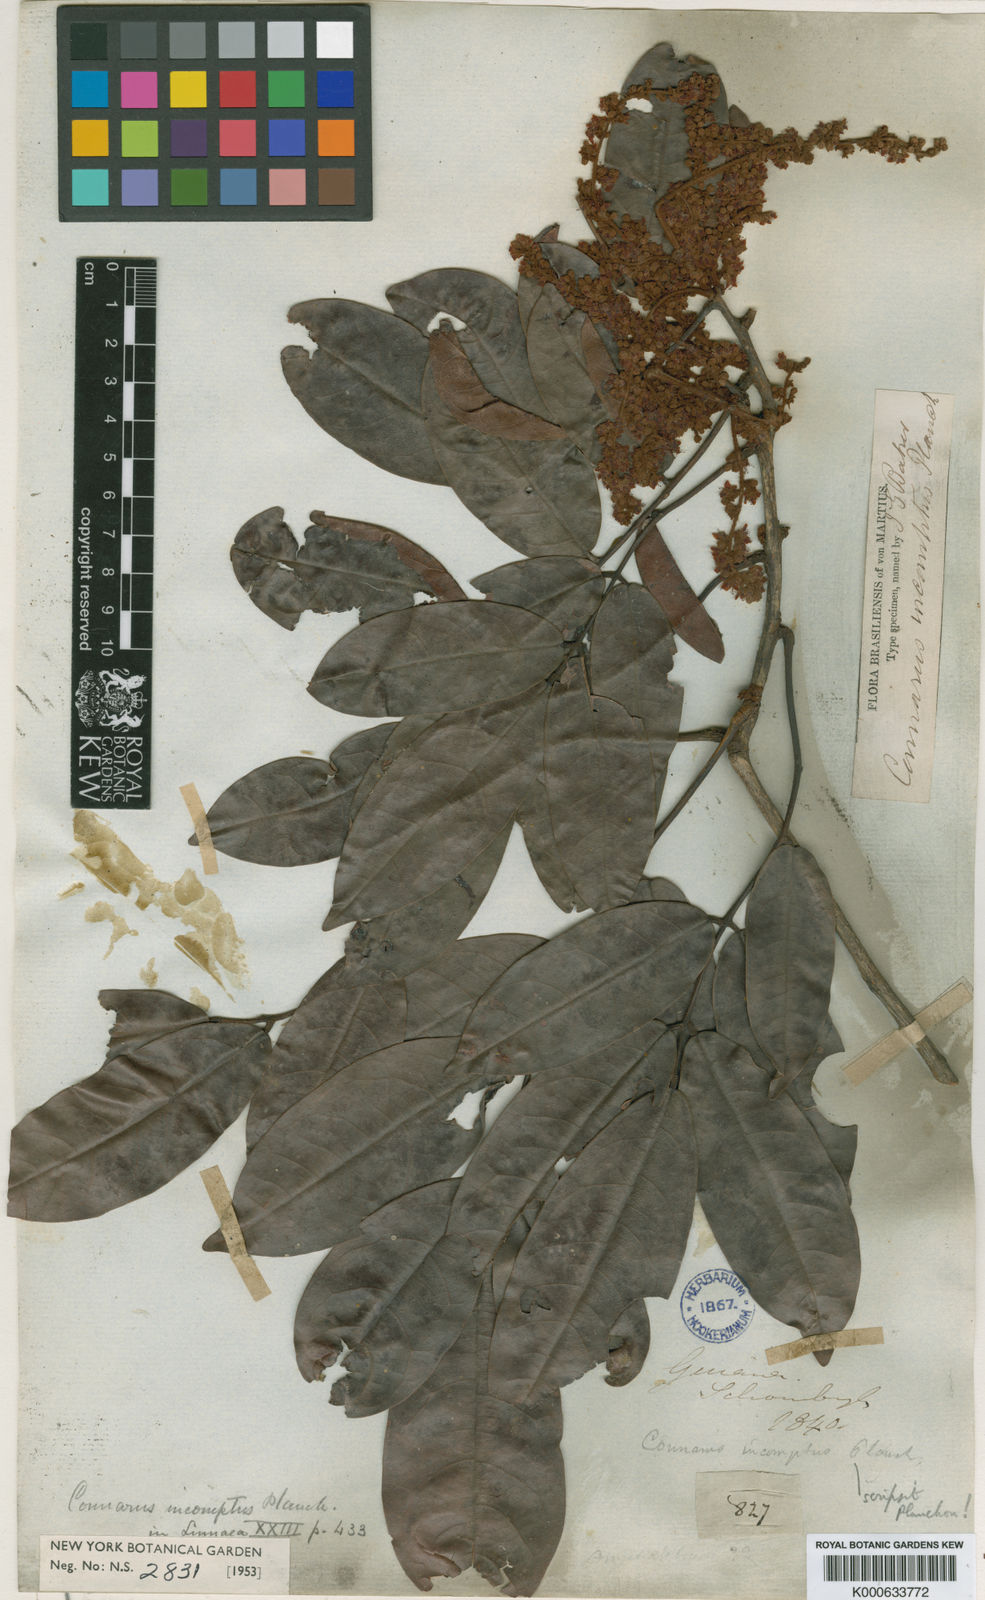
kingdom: Plantae
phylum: Tracheophyta
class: Magnoliopsida
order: Oxalidales
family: Connaraceae
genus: Connarus
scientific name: Connarus incomptus
